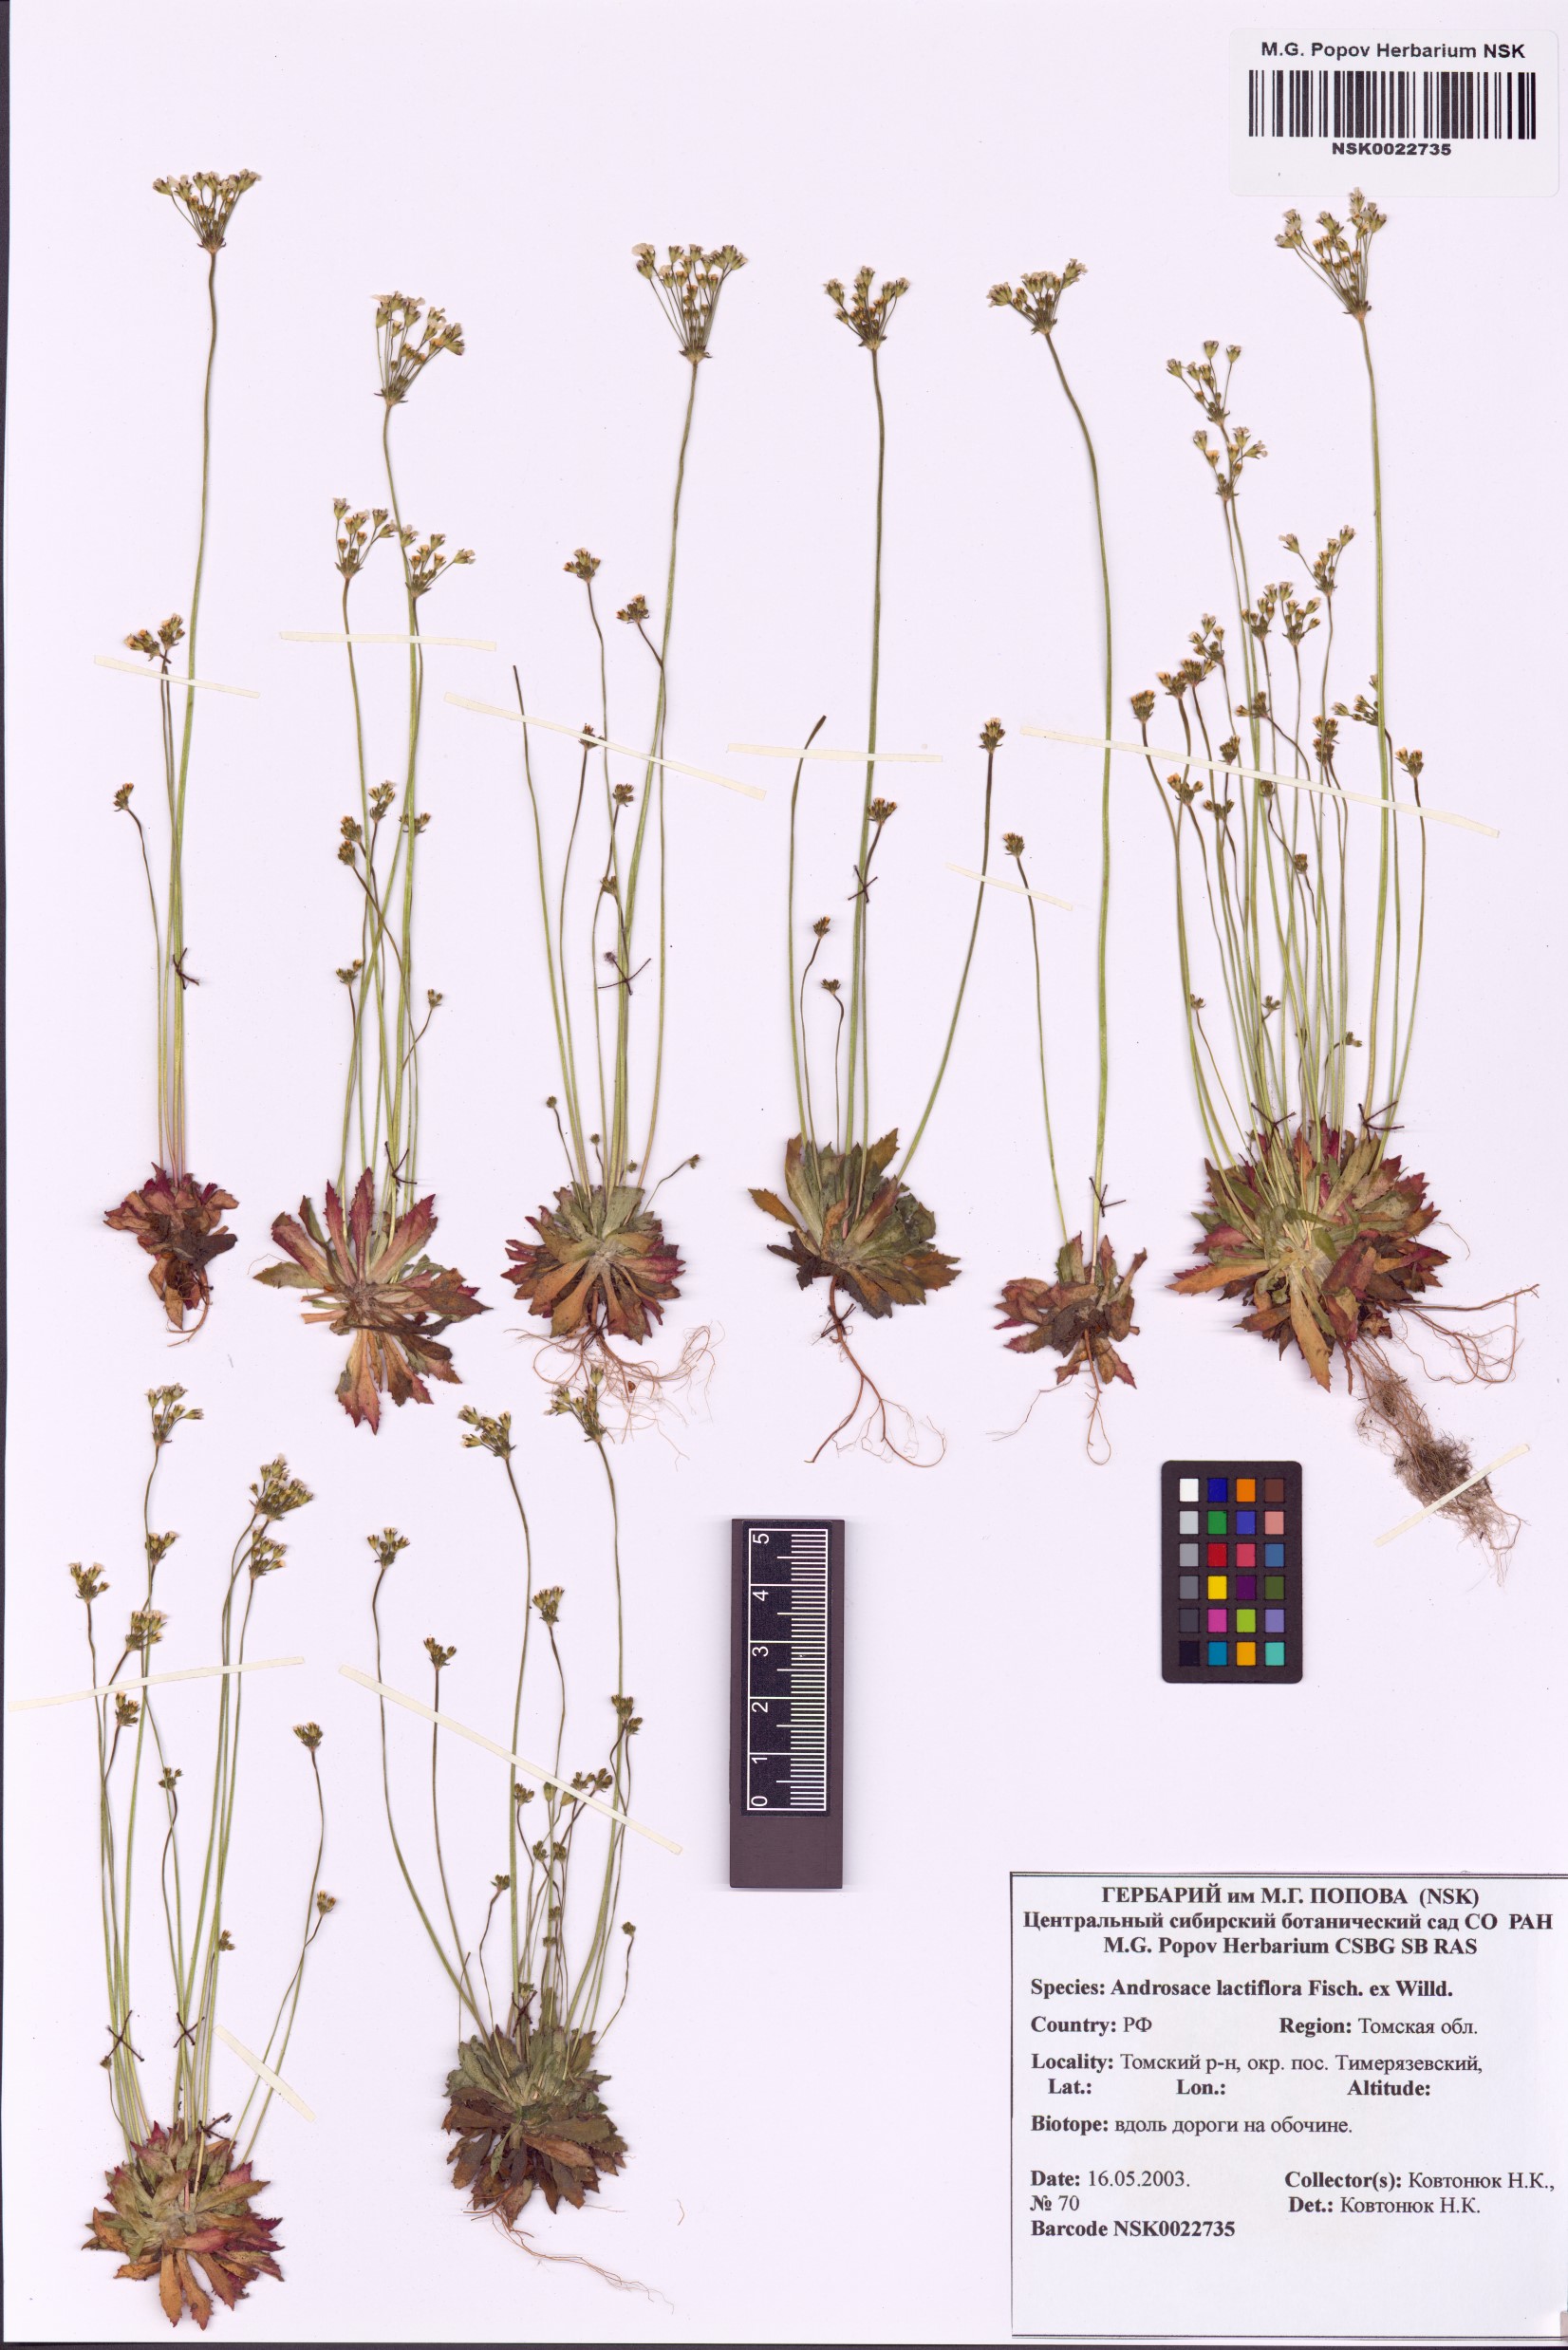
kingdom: Plantae
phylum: Tracheophyta
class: Magnoliopsida
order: Ericales
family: Primulaceae
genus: Androsace
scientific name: Androsace lactiflora
